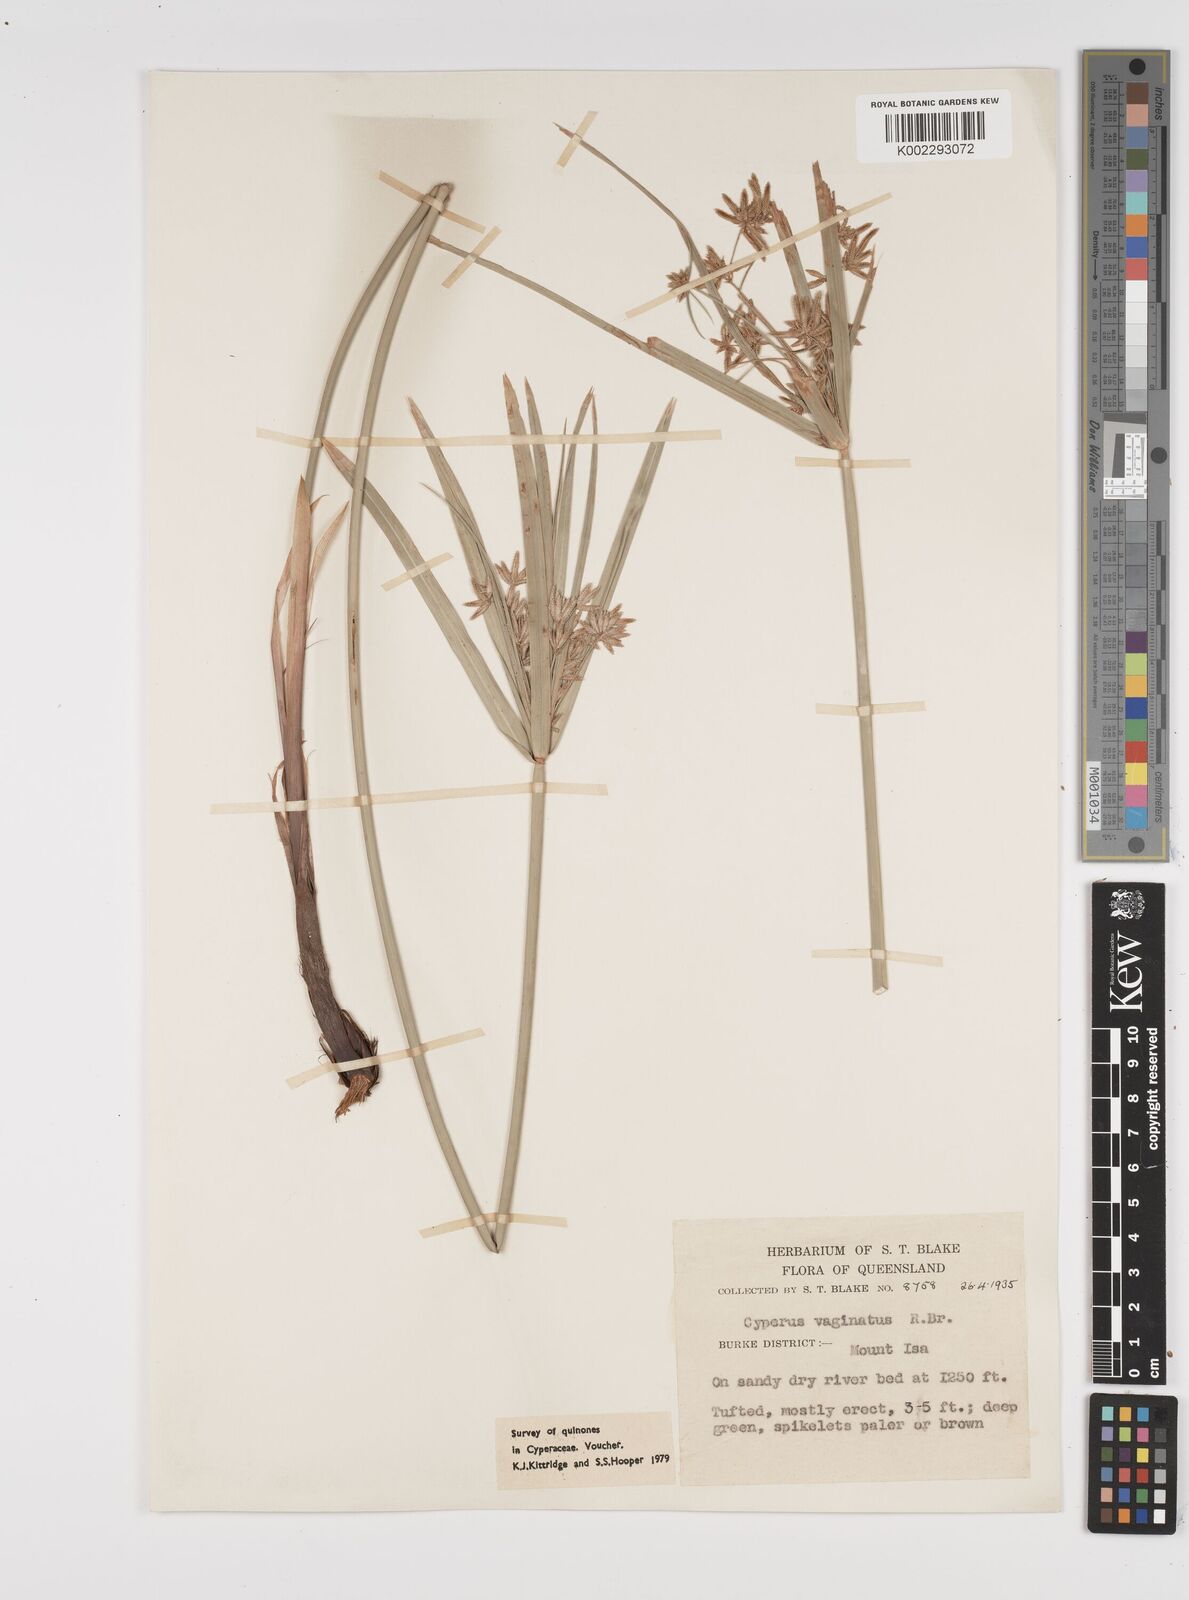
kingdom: Plantae
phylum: Tracheophyta
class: Liliopsida
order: Poales
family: Cyperaceae
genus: Cyperus
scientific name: Cyperus vaginatus
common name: Stiff-leaved flat-sedge
